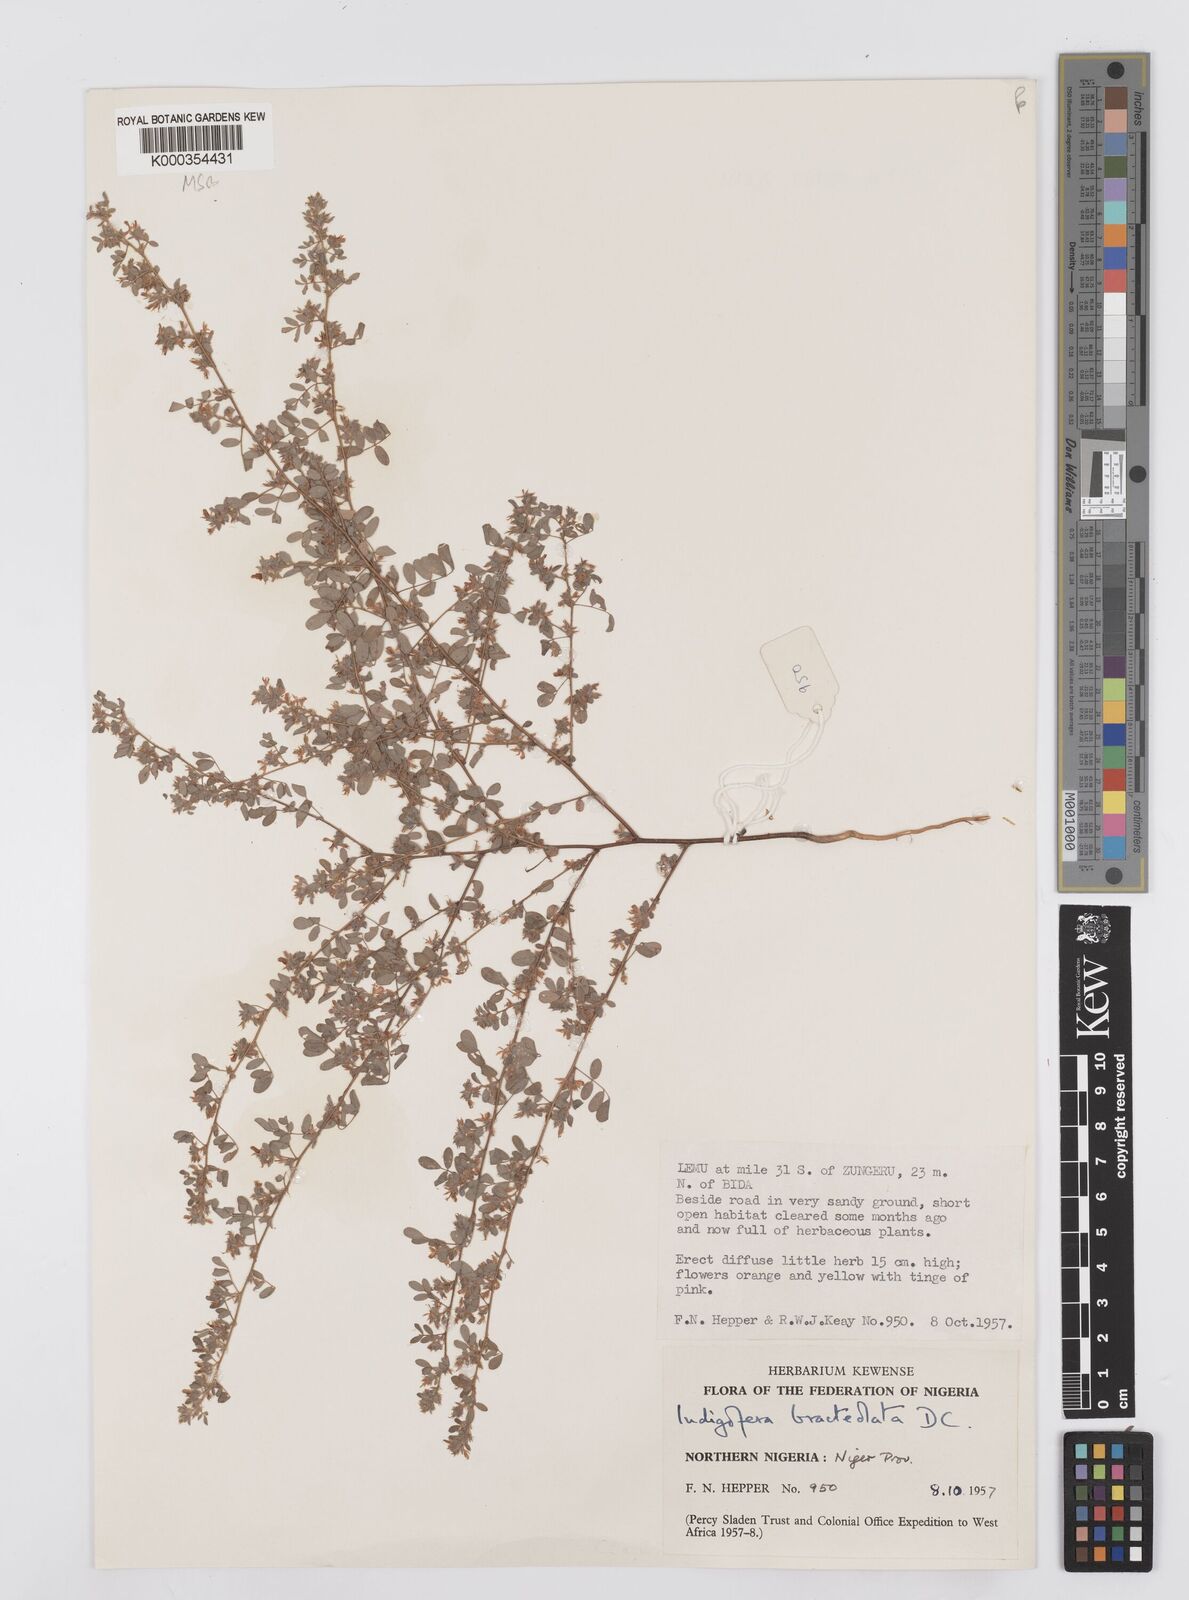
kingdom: Plantae
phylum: Tracheophyta
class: Magnoliopsida
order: Fabales
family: Fabaceae
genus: Indigofera
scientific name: Indigofera bracteolata
